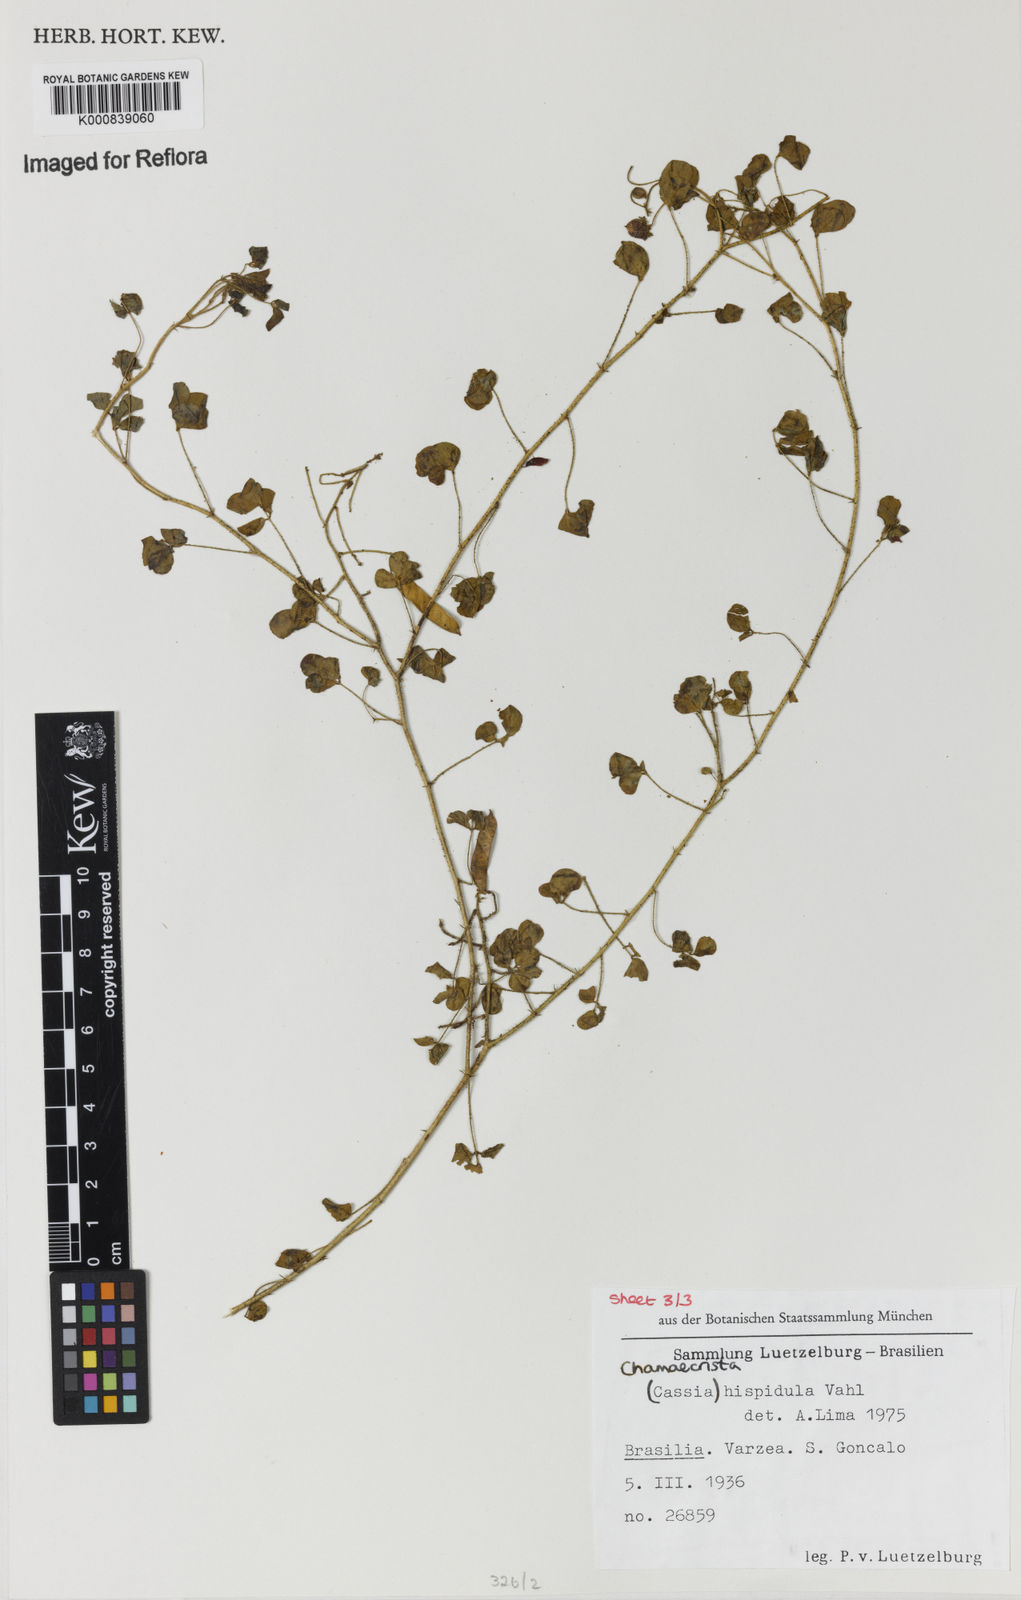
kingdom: Plantae
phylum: Tracheophyta
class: Magnoliopsida
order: Fabales
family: Fabaceae
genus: Chamaecrista
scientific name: Chamaecrista hispidula
